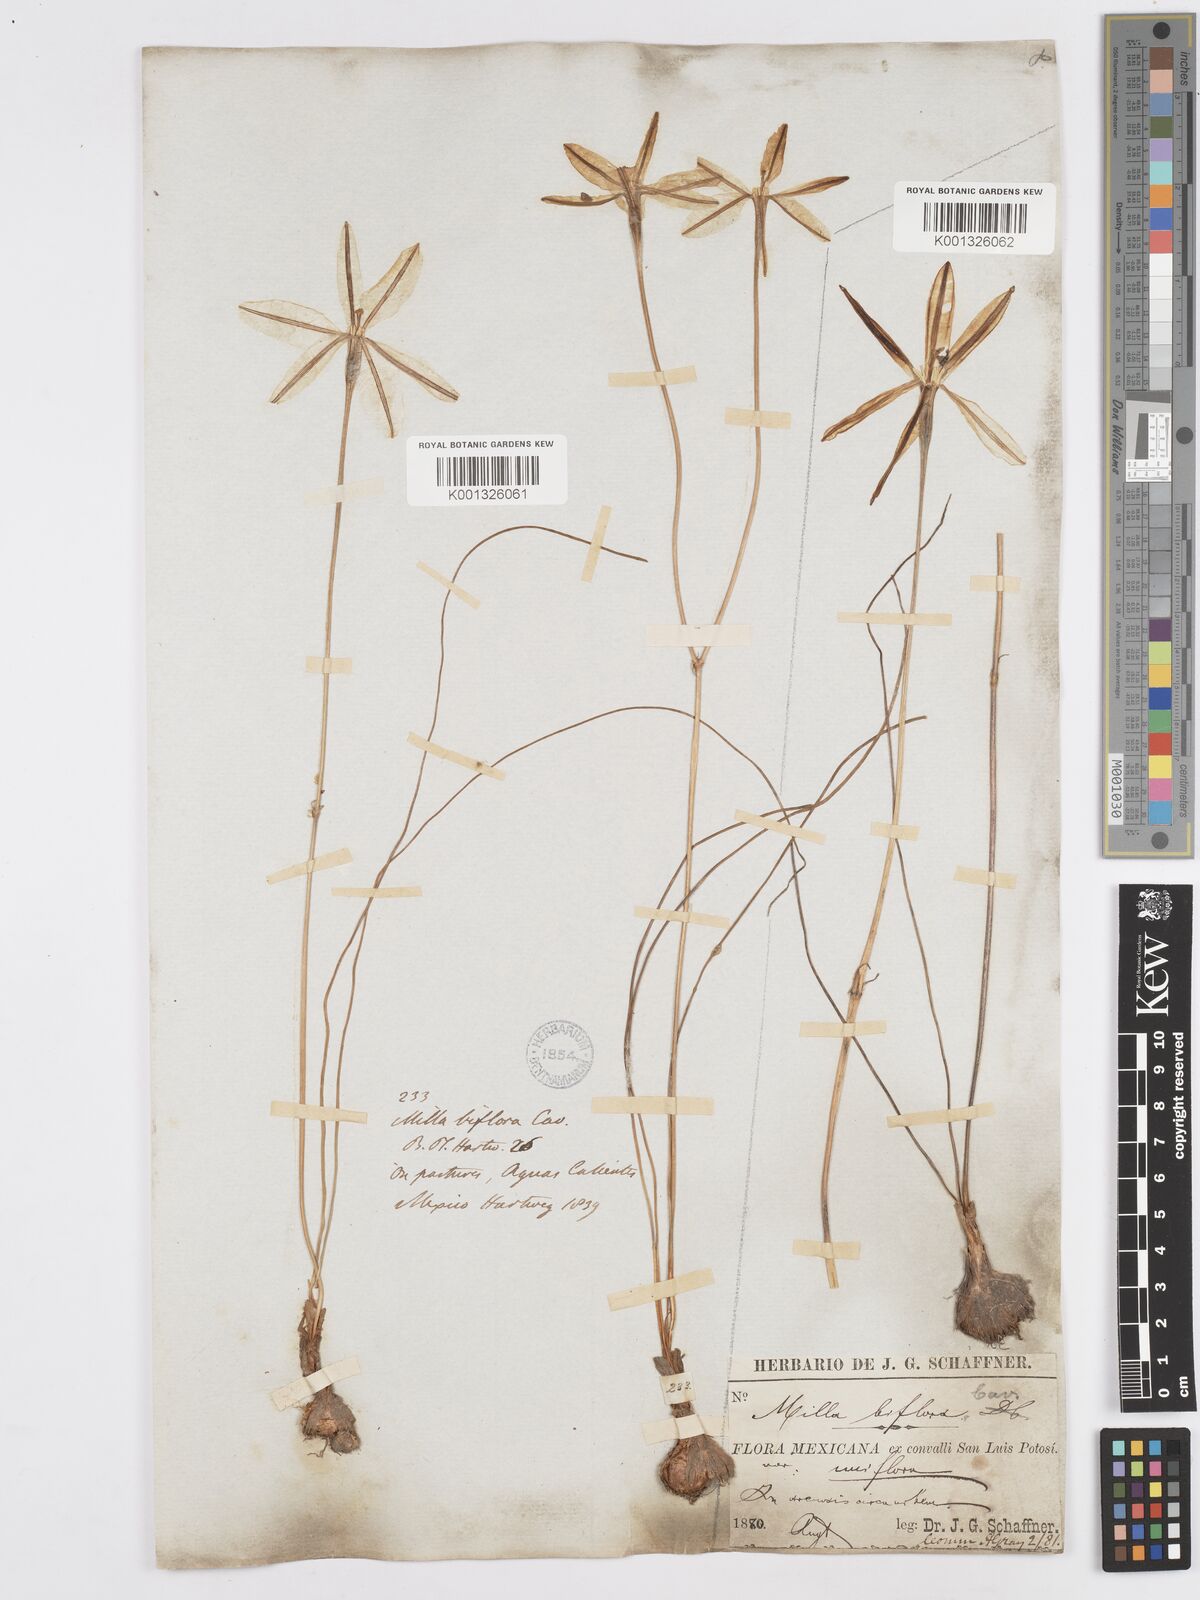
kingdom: Plantae
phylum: Tracheophyta
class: Liliopsida
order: Asparagales
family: Asparagaceae
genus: Milla
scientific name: Milla biflora
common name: Mexican-star
